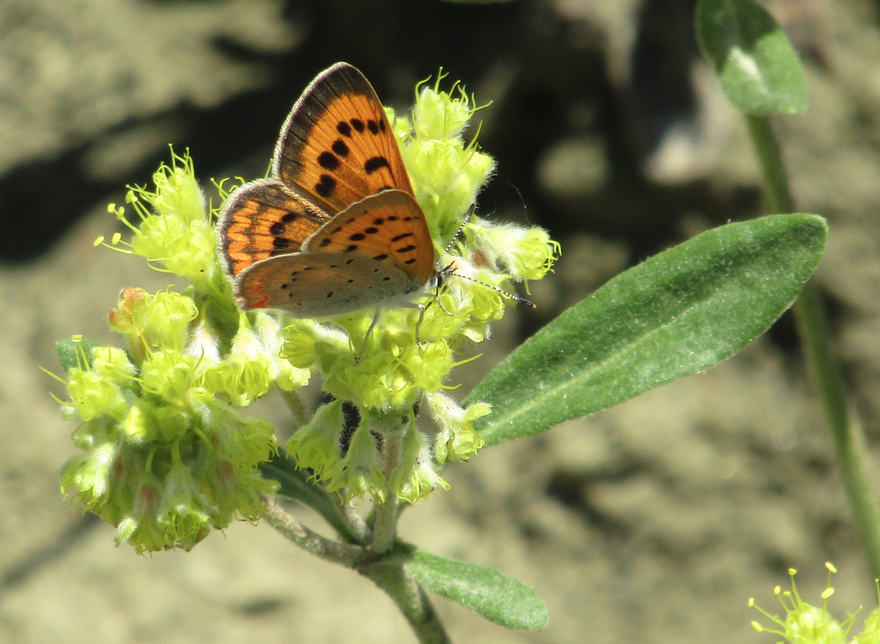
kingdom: Animalia
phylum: Arthropoda
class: Insecta
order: Lepidoptera
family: Sesiidae
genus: Sesia
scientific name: Sesia Lycaena helloides
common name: Purplish Copper
